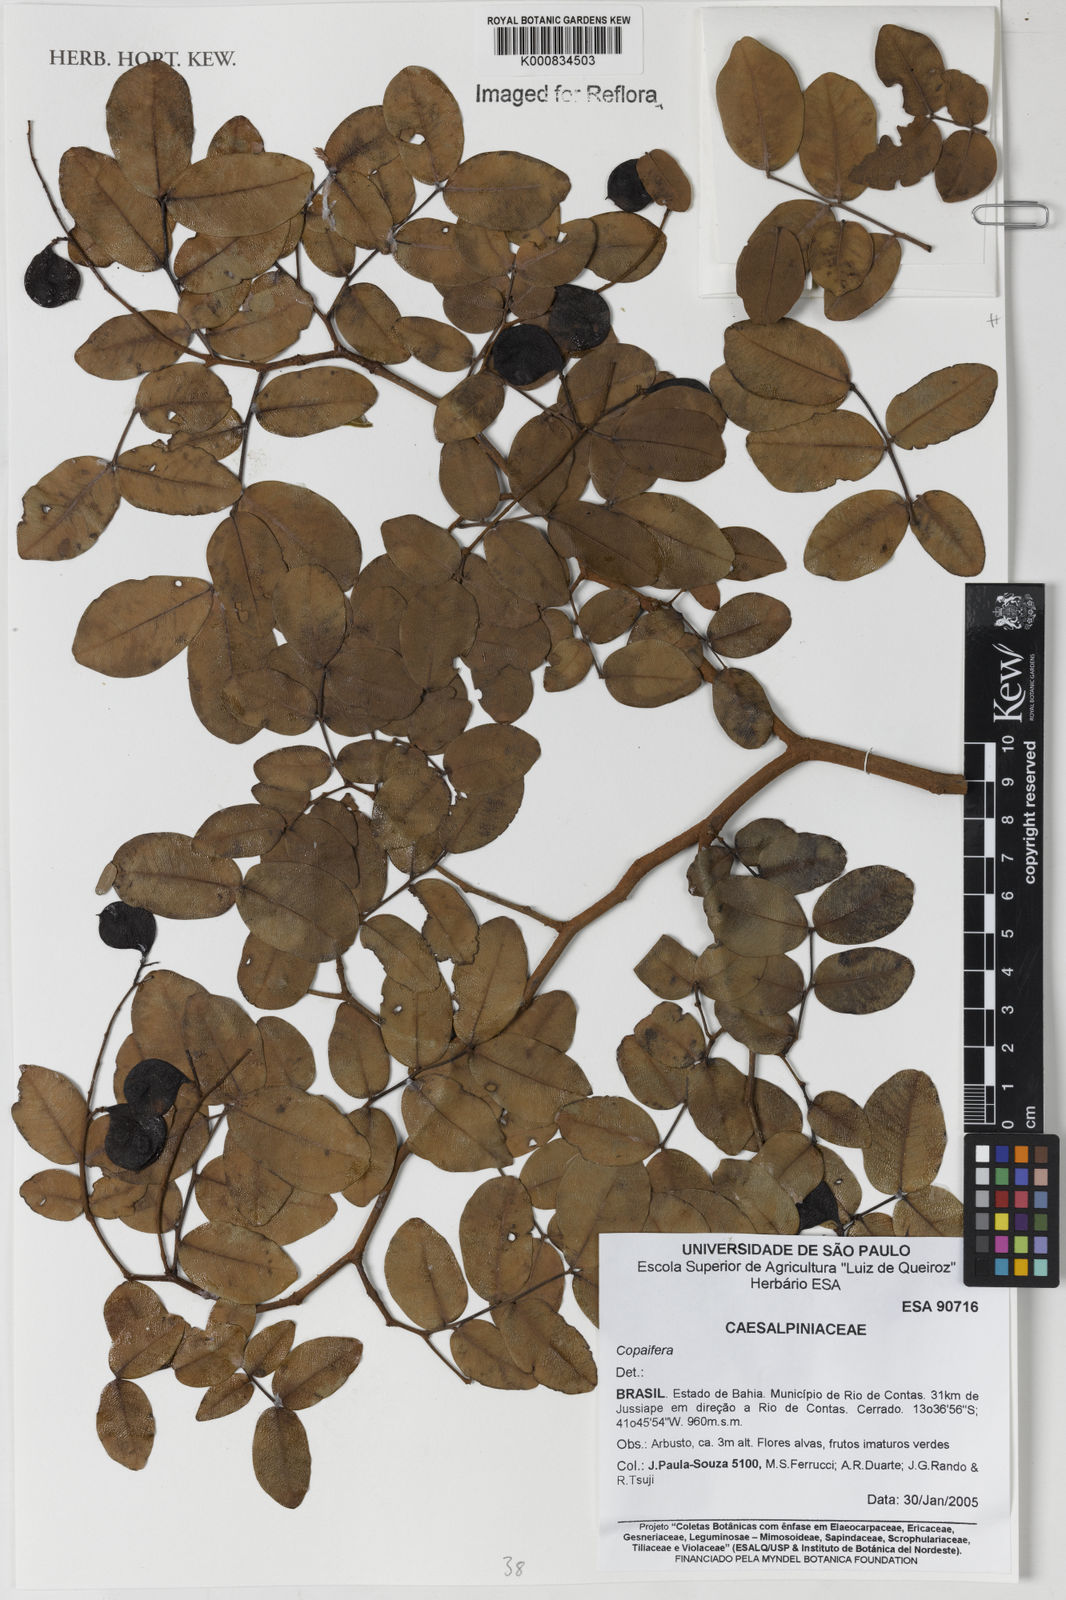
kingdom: Plantae
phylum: Tracheophyta
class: Magnoliopsida
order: Fabales
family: Fabaceae
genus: Copaifera
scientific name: Copaifera
